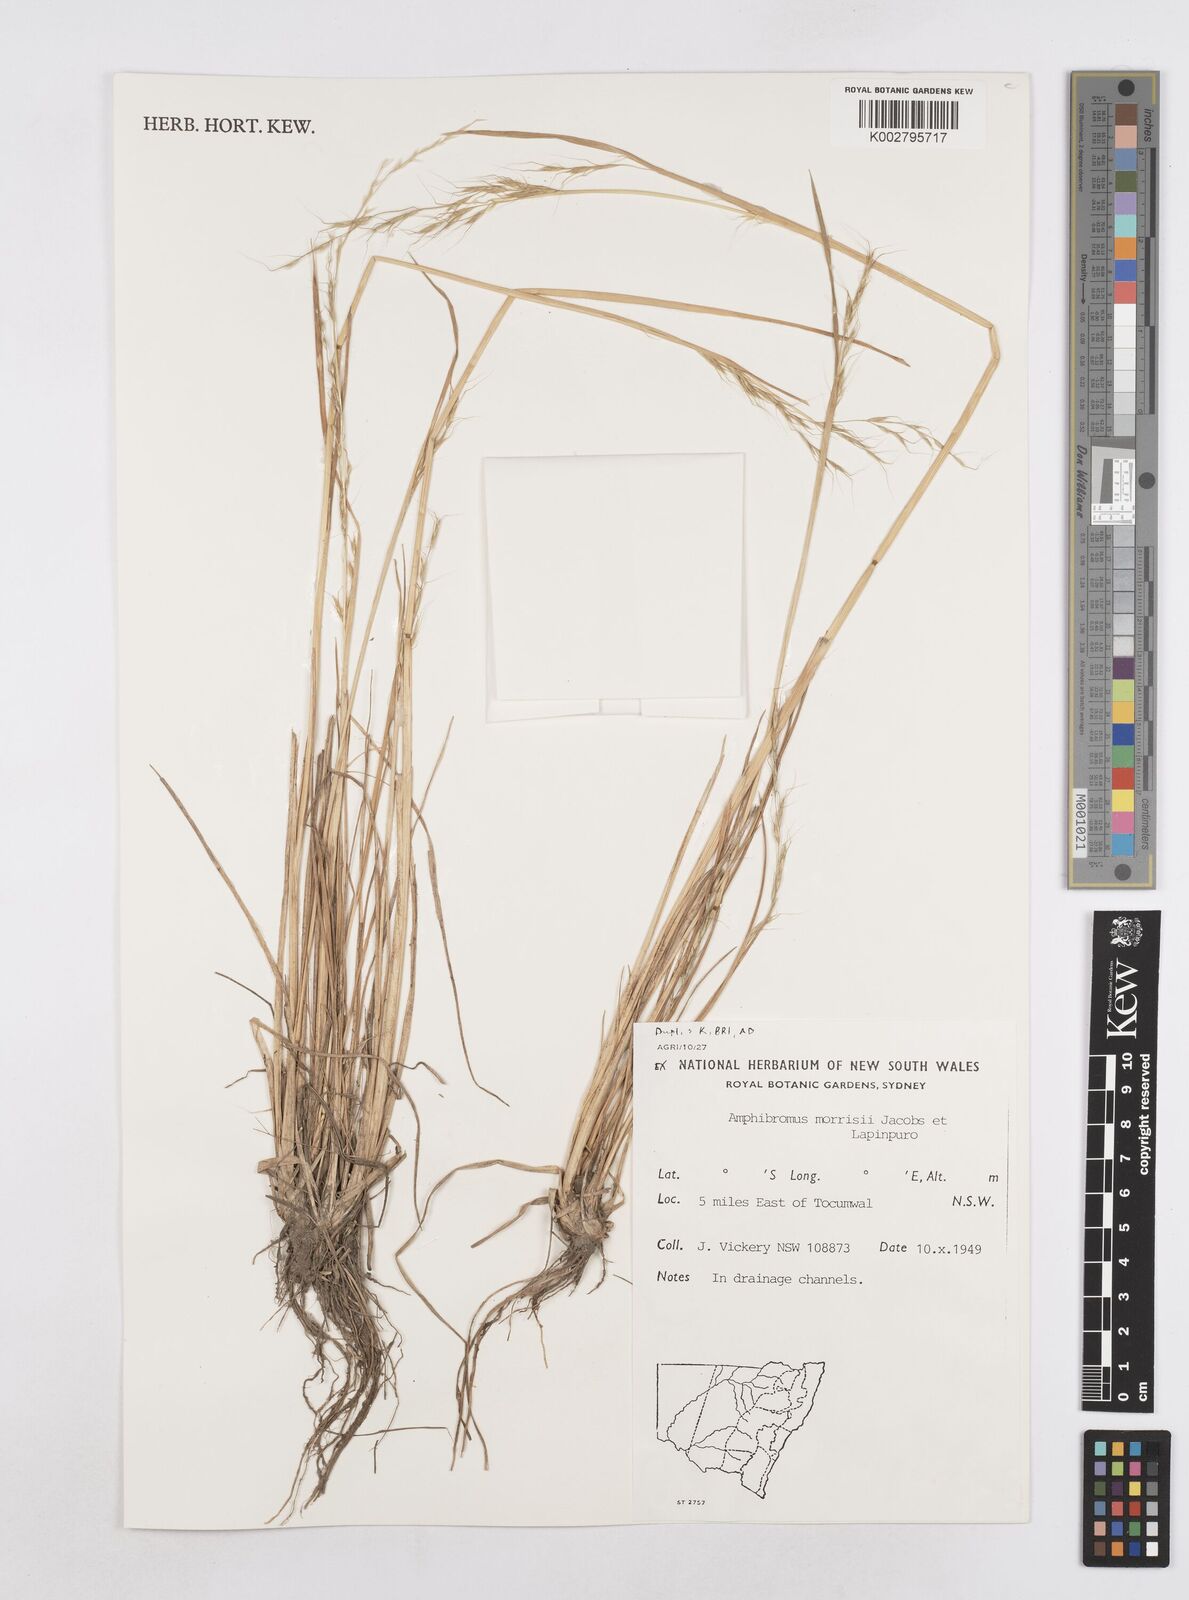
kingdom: Plantae
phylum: Tracheophyta
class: Liliopsida
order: Poales
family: Poaceae
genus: Helictotrichon
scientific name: Helictotrichon
